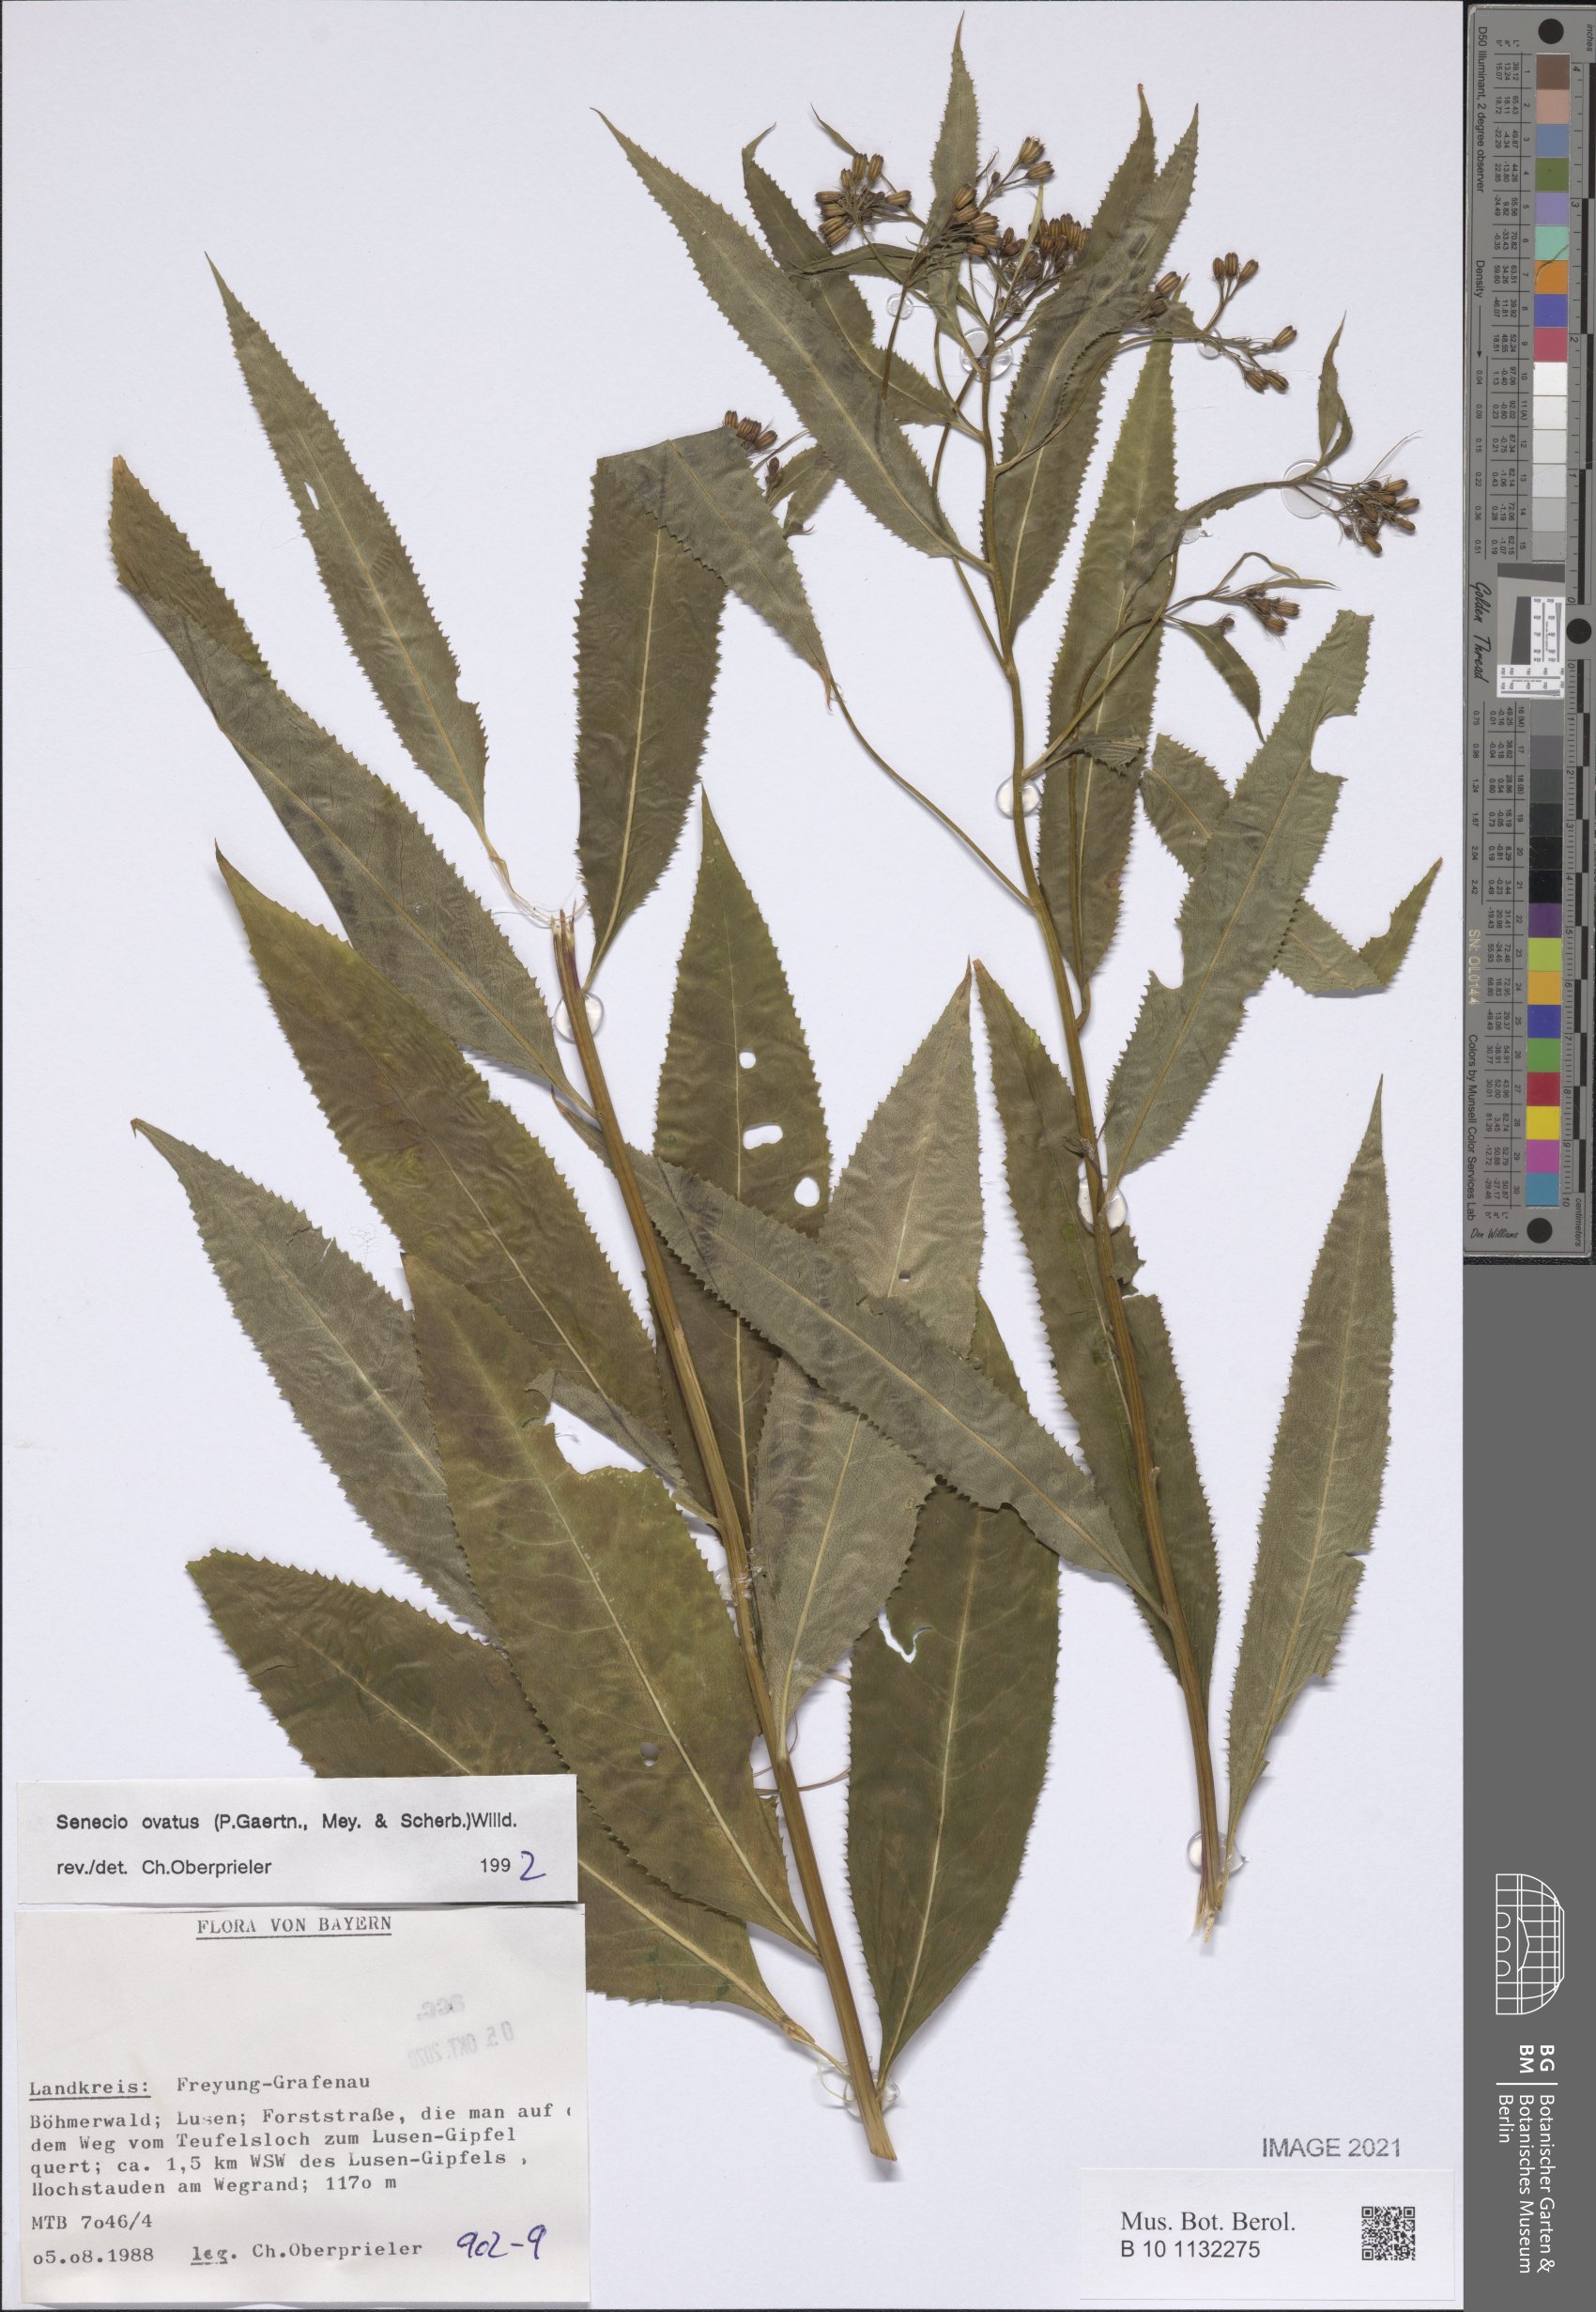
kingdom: Plantae
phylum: Tracheophyta
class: Magnoliopsida
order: Asterales
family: Asteraceae
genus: Senecio
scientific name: Senecio ovatus
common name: Wood ragwort
